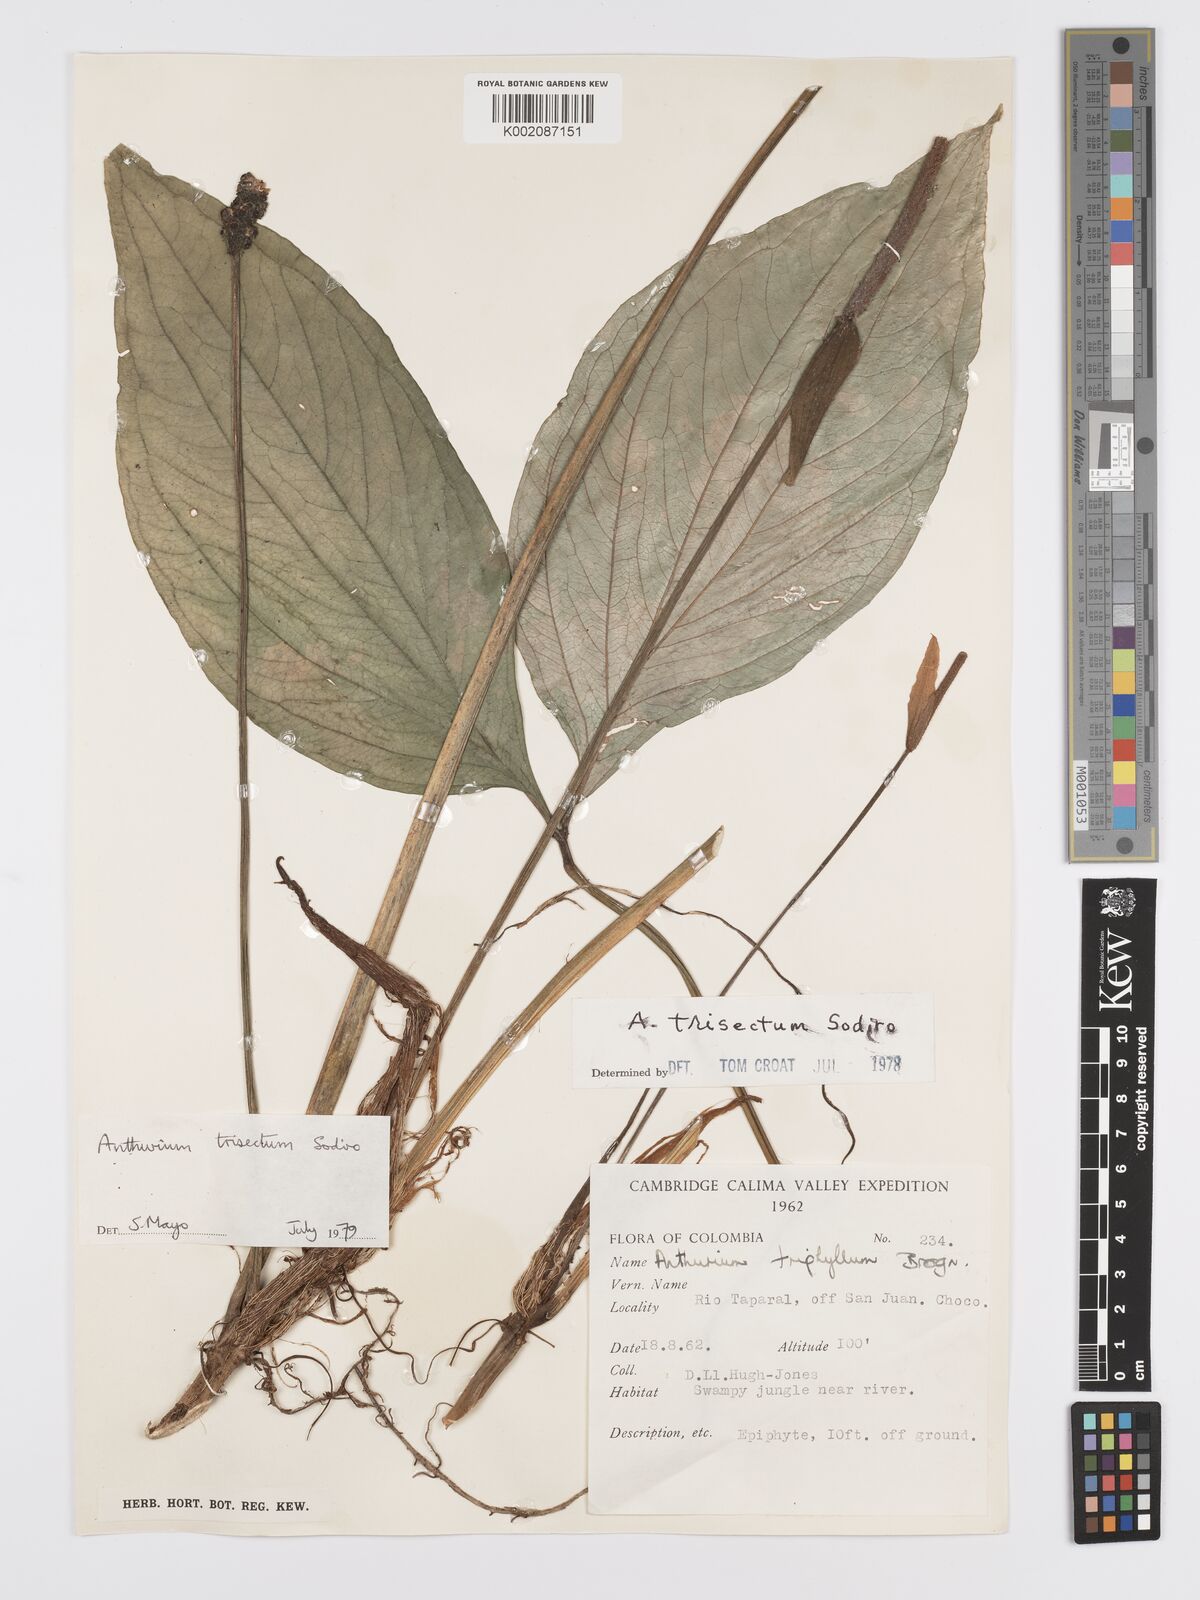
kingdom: Plantae
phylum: Tracheophyta
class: Liliopsida
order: Alismatales
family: Araceae
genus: Anthurium
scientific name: Anthurium trisectum
